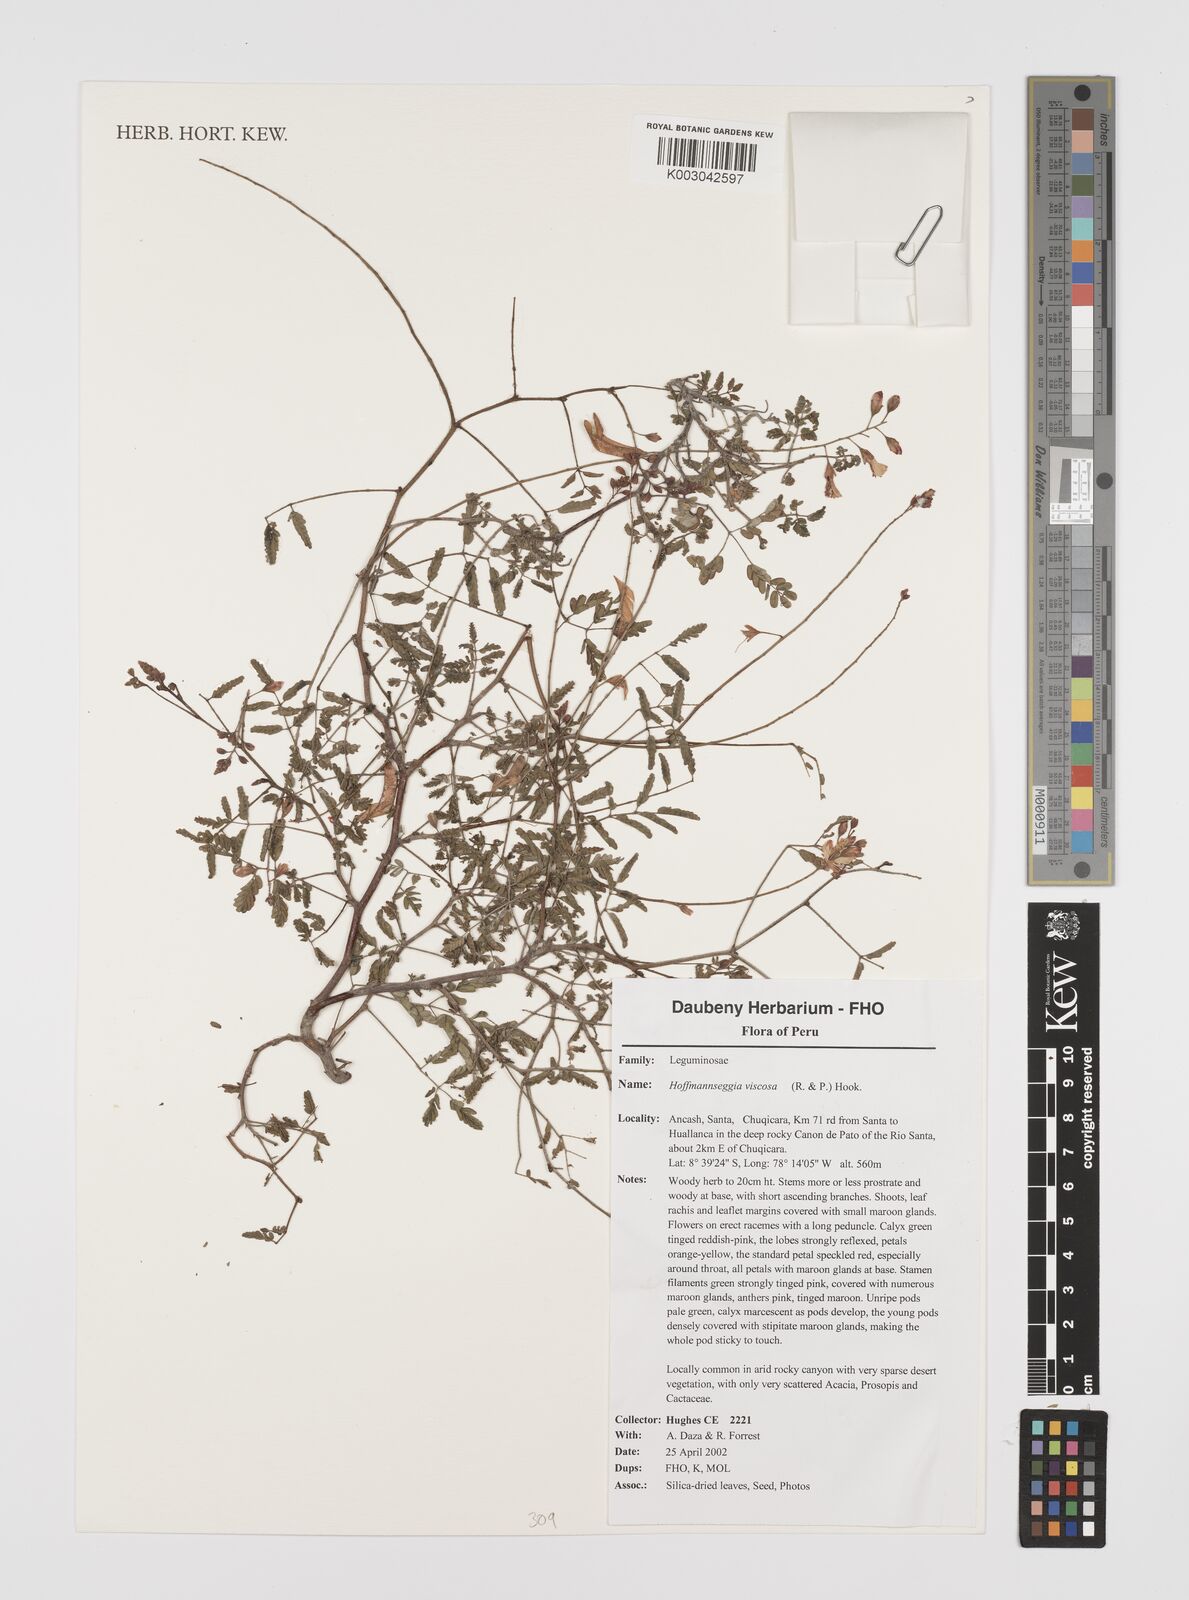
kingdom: Plantae
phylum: Tracheophyta
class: Magnoliopsida
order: Fabales
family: Fabaceae
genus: Hoffmannseggia
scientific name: Hoffmannseggia viscosa
